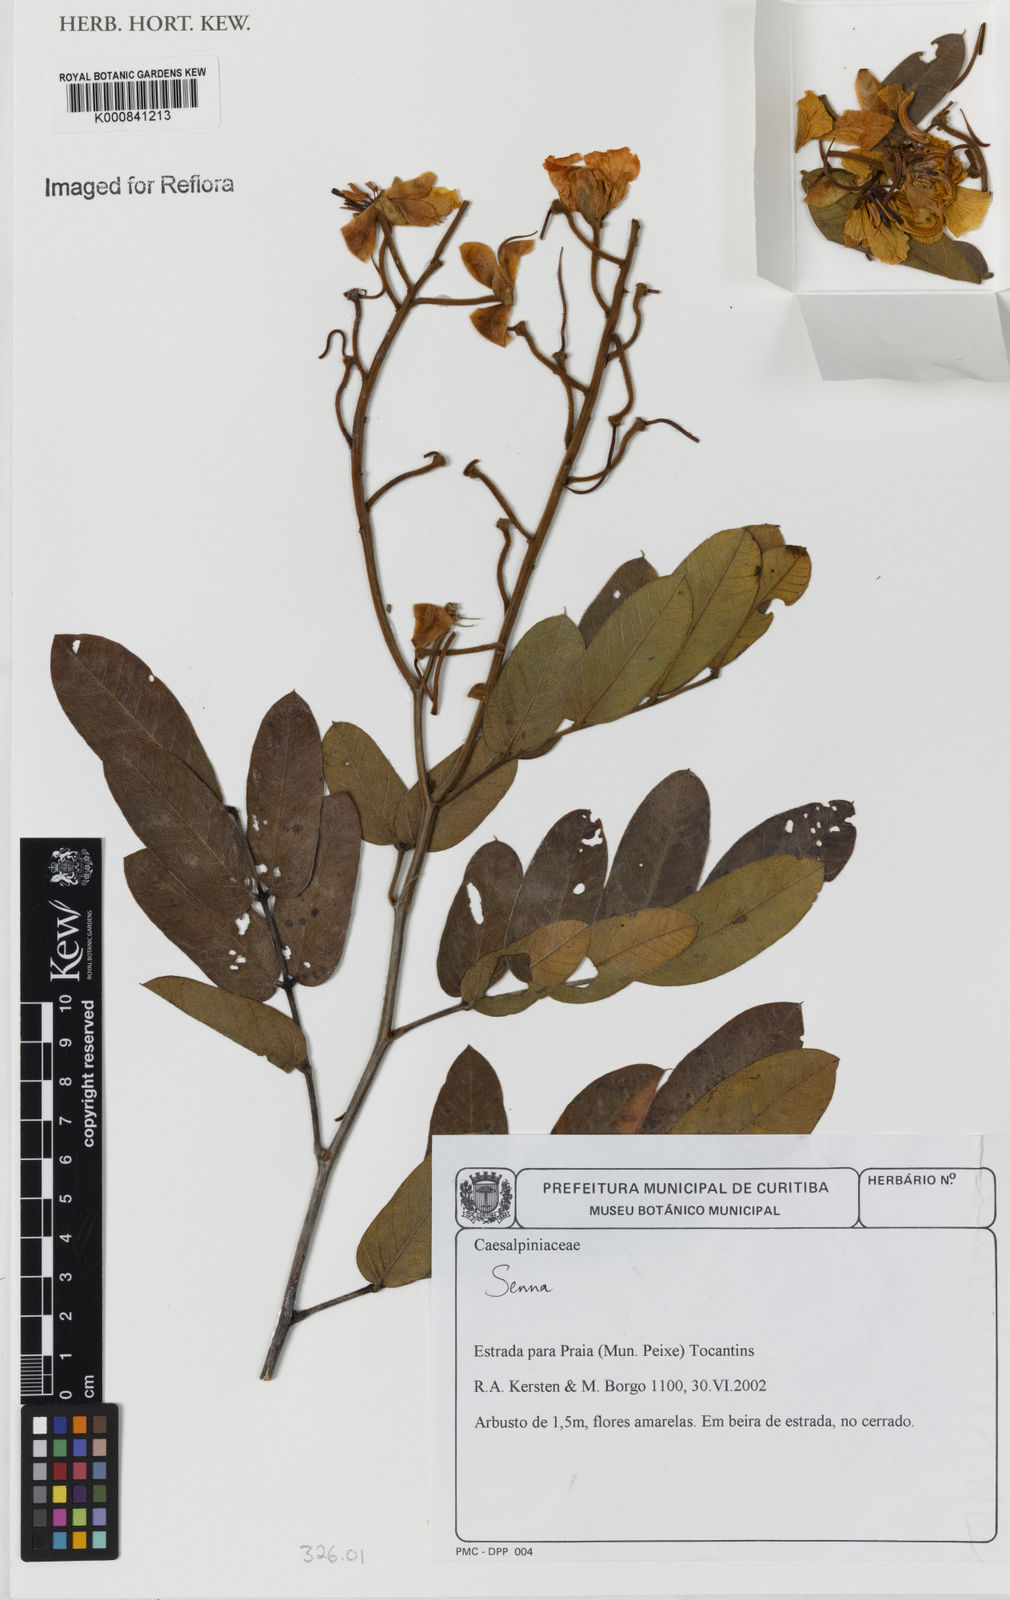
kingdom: Plantae
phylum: Tracheophyta
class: Magnoliopsida
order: Fabales
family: Fabaceae
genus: Senna
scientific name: Senna
